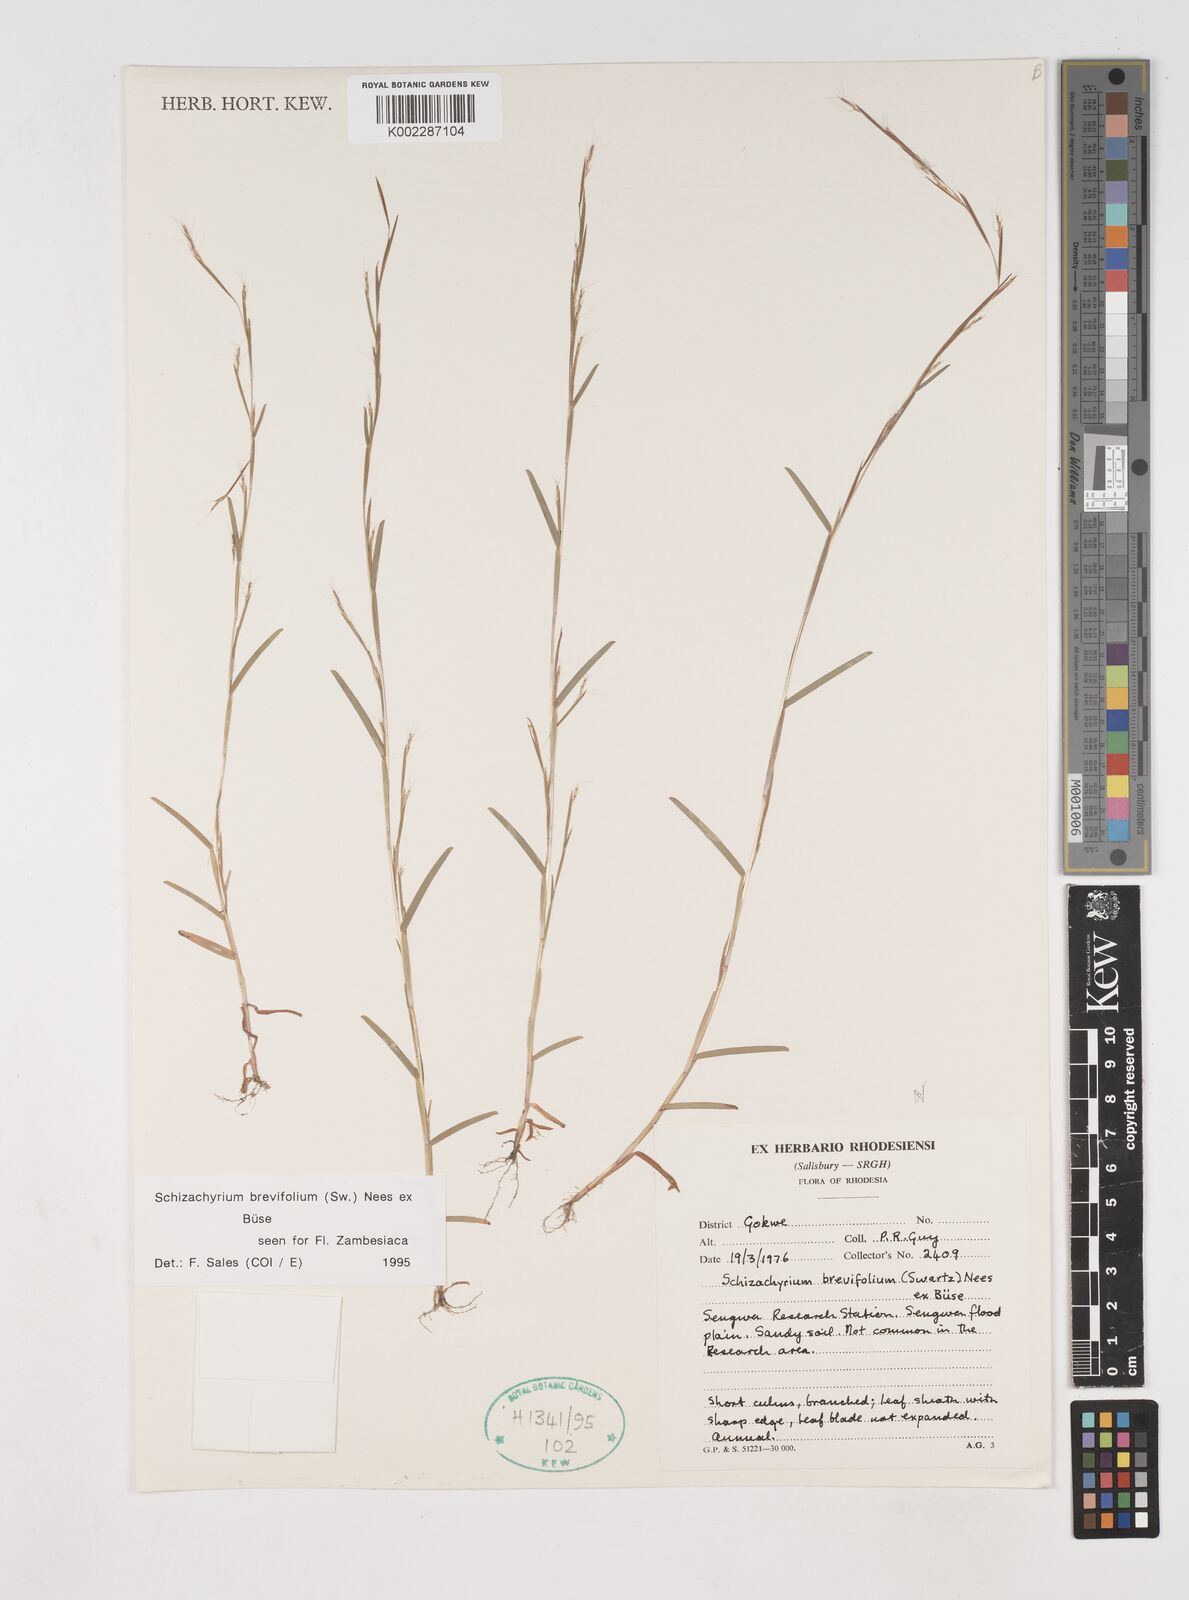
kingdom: Plantae
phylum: Tracheophyta
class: Liliopsida
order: Poales
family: Poaceae
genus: Schizachyrium
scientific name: Schizachyrium brevifolium
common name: Serillo dulce
